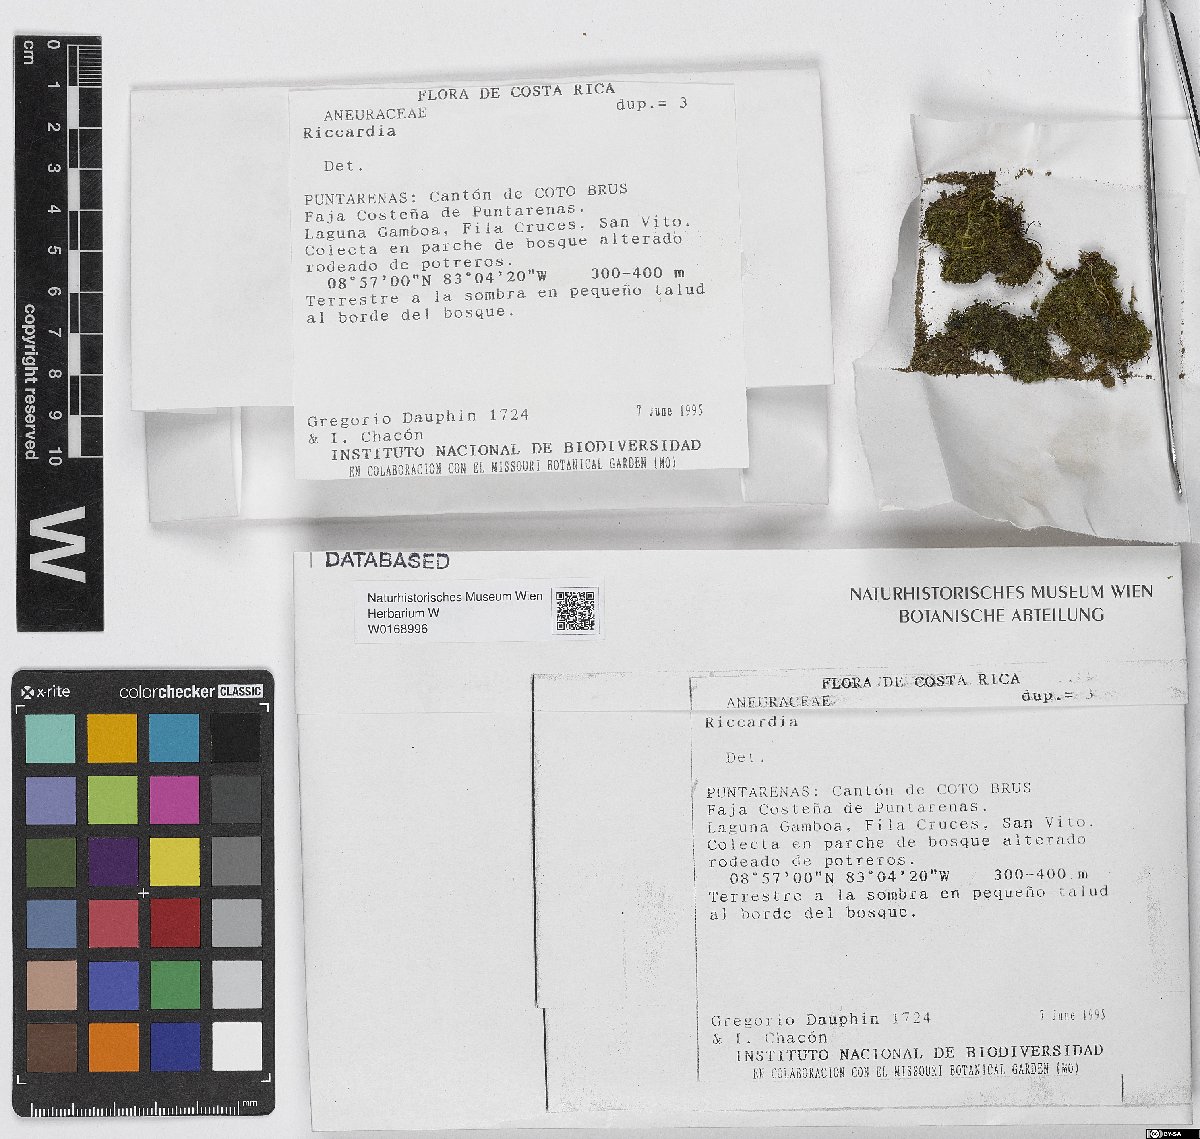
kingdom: Plantae
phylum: Marchantiophyta
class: Jungermanniopsida
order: Metzgeriales
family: Aneuraceae
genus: Riccardia
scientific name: Riccardia
